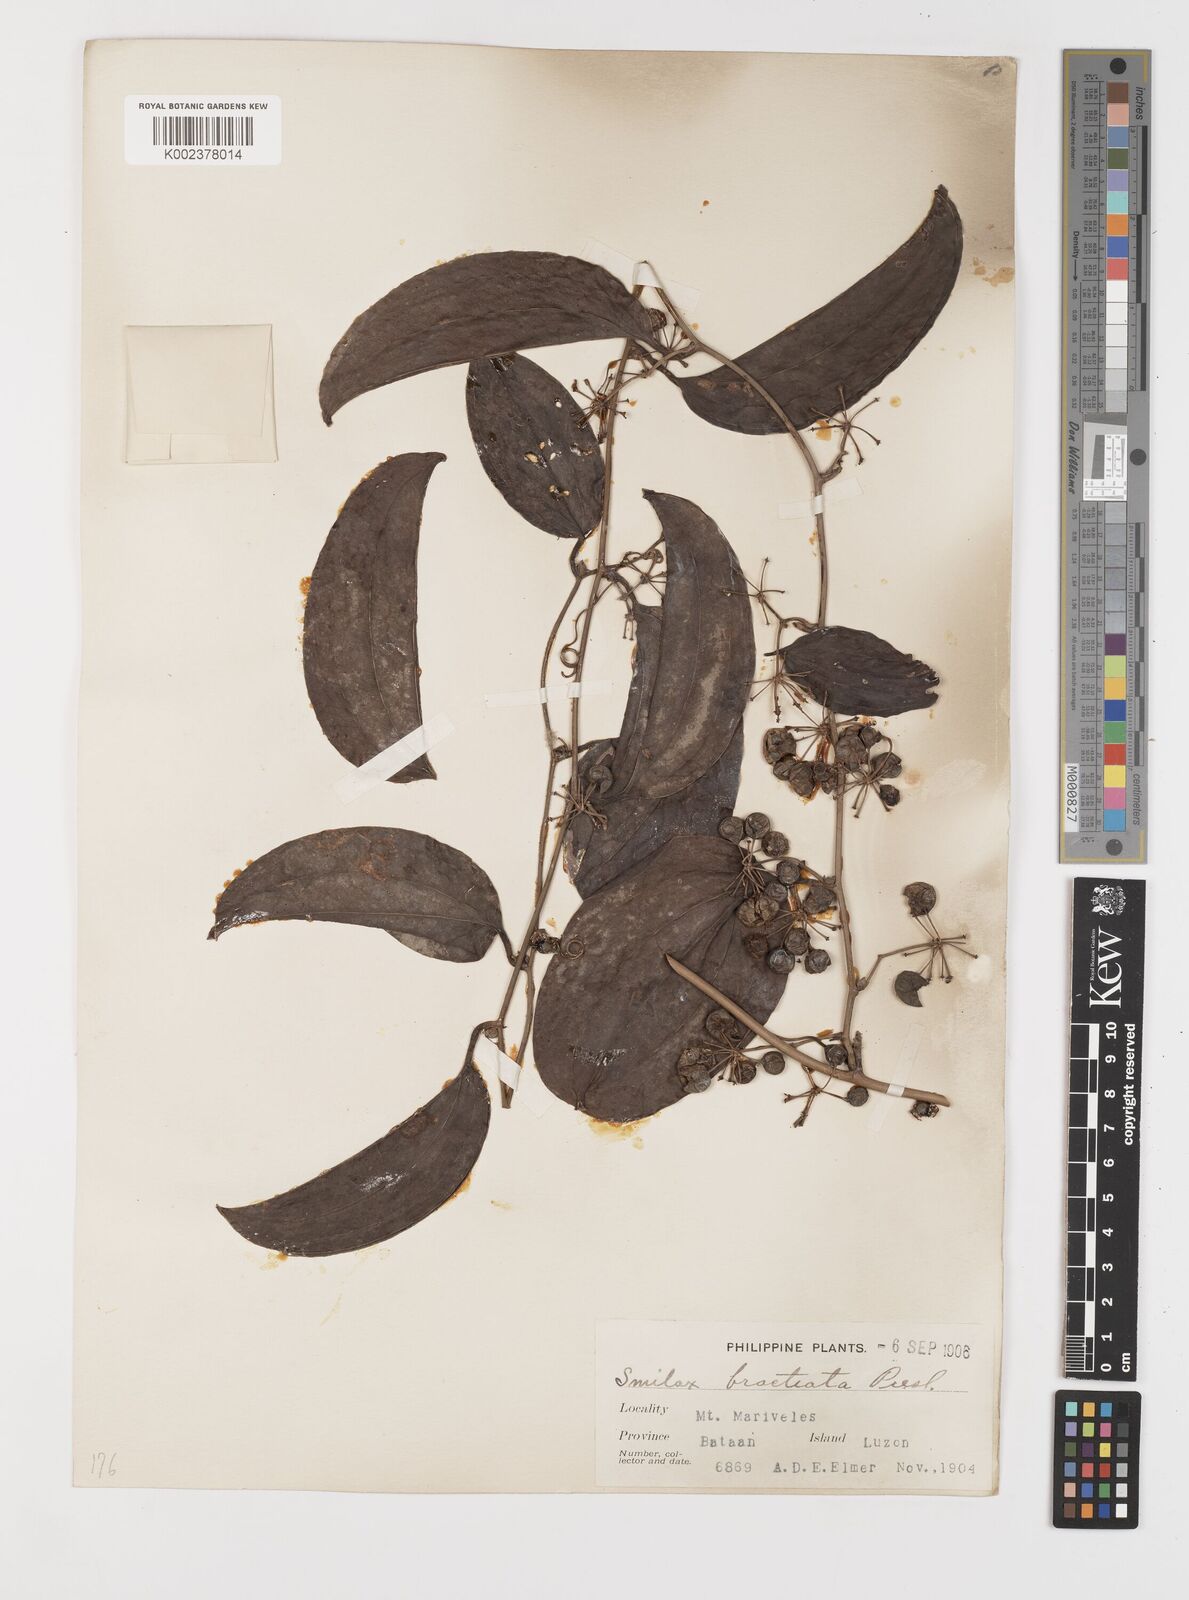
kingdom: Plantae
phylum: Tracheophyta
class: Liliopsida
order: Liliales
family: Smilacaceae
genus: Smilax
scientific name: Smilax bracteata
